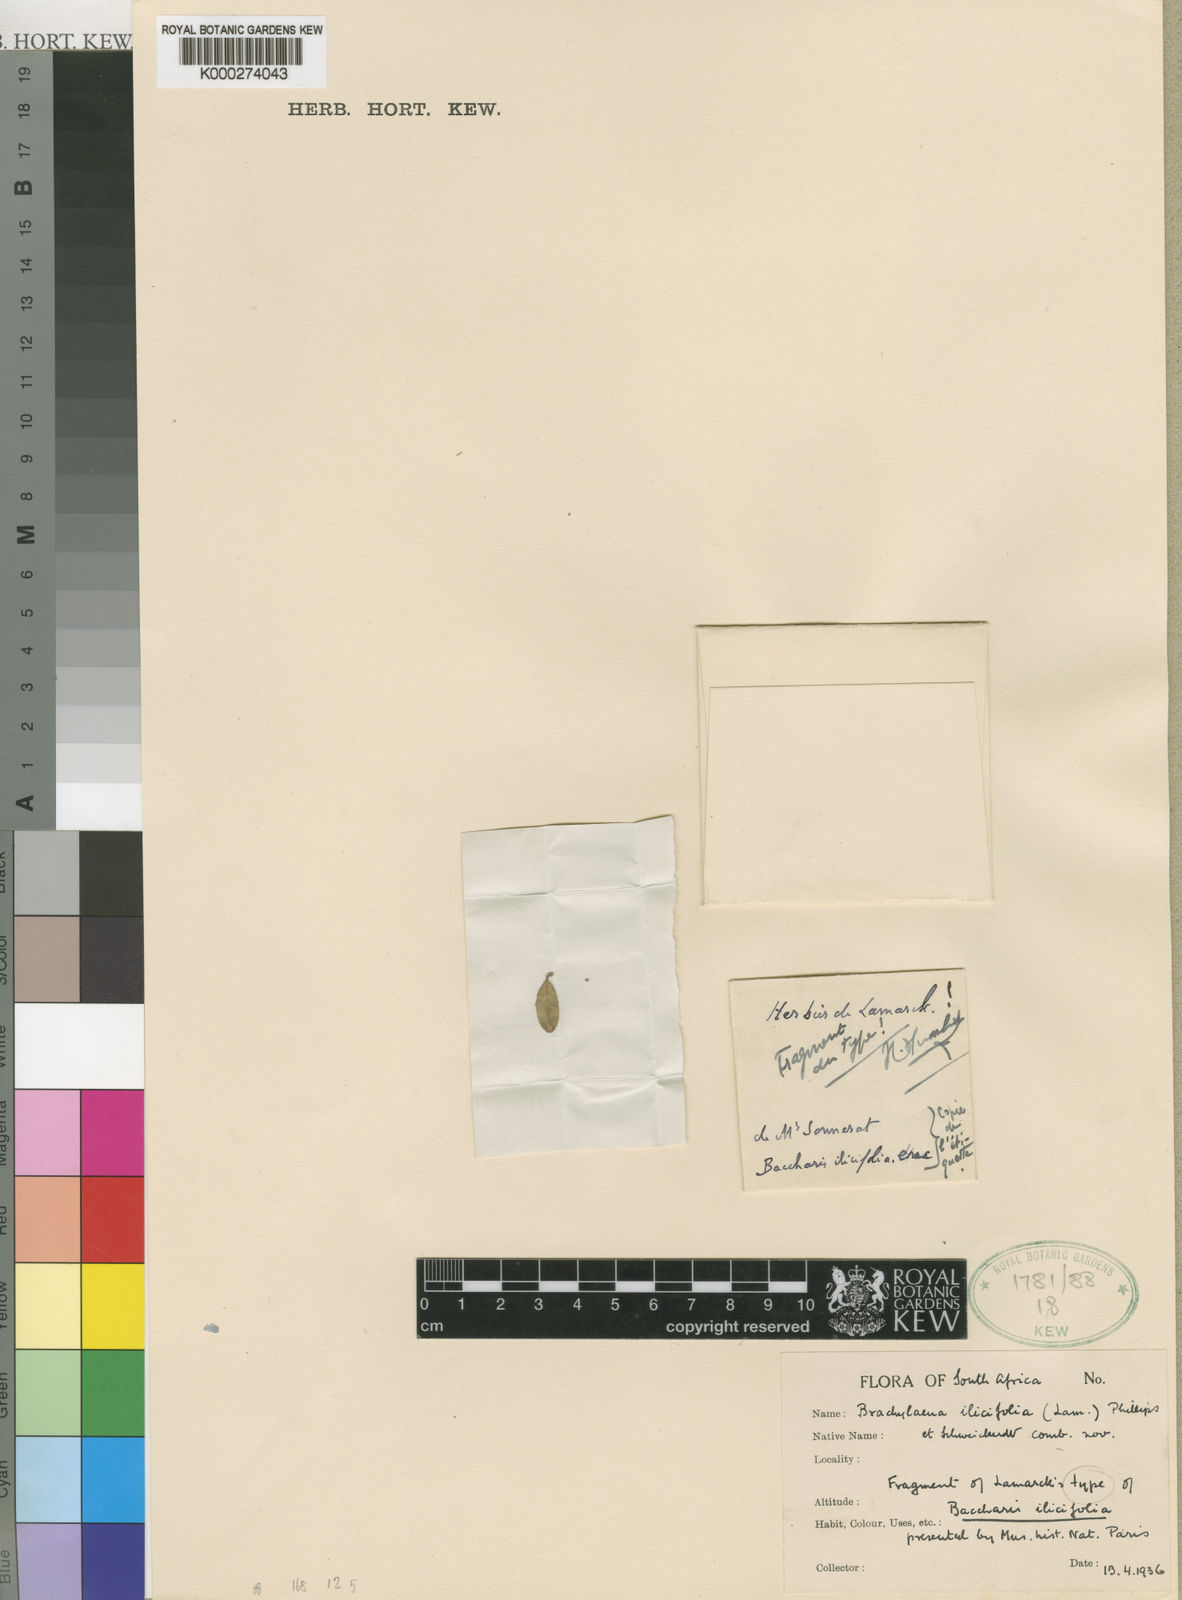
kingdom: Plantae
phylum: Tracheophyta
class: Magnoliopsida
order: Asterales
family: Asteraceae
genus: Brachylaena
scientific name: Brachylaena ilicifolia
